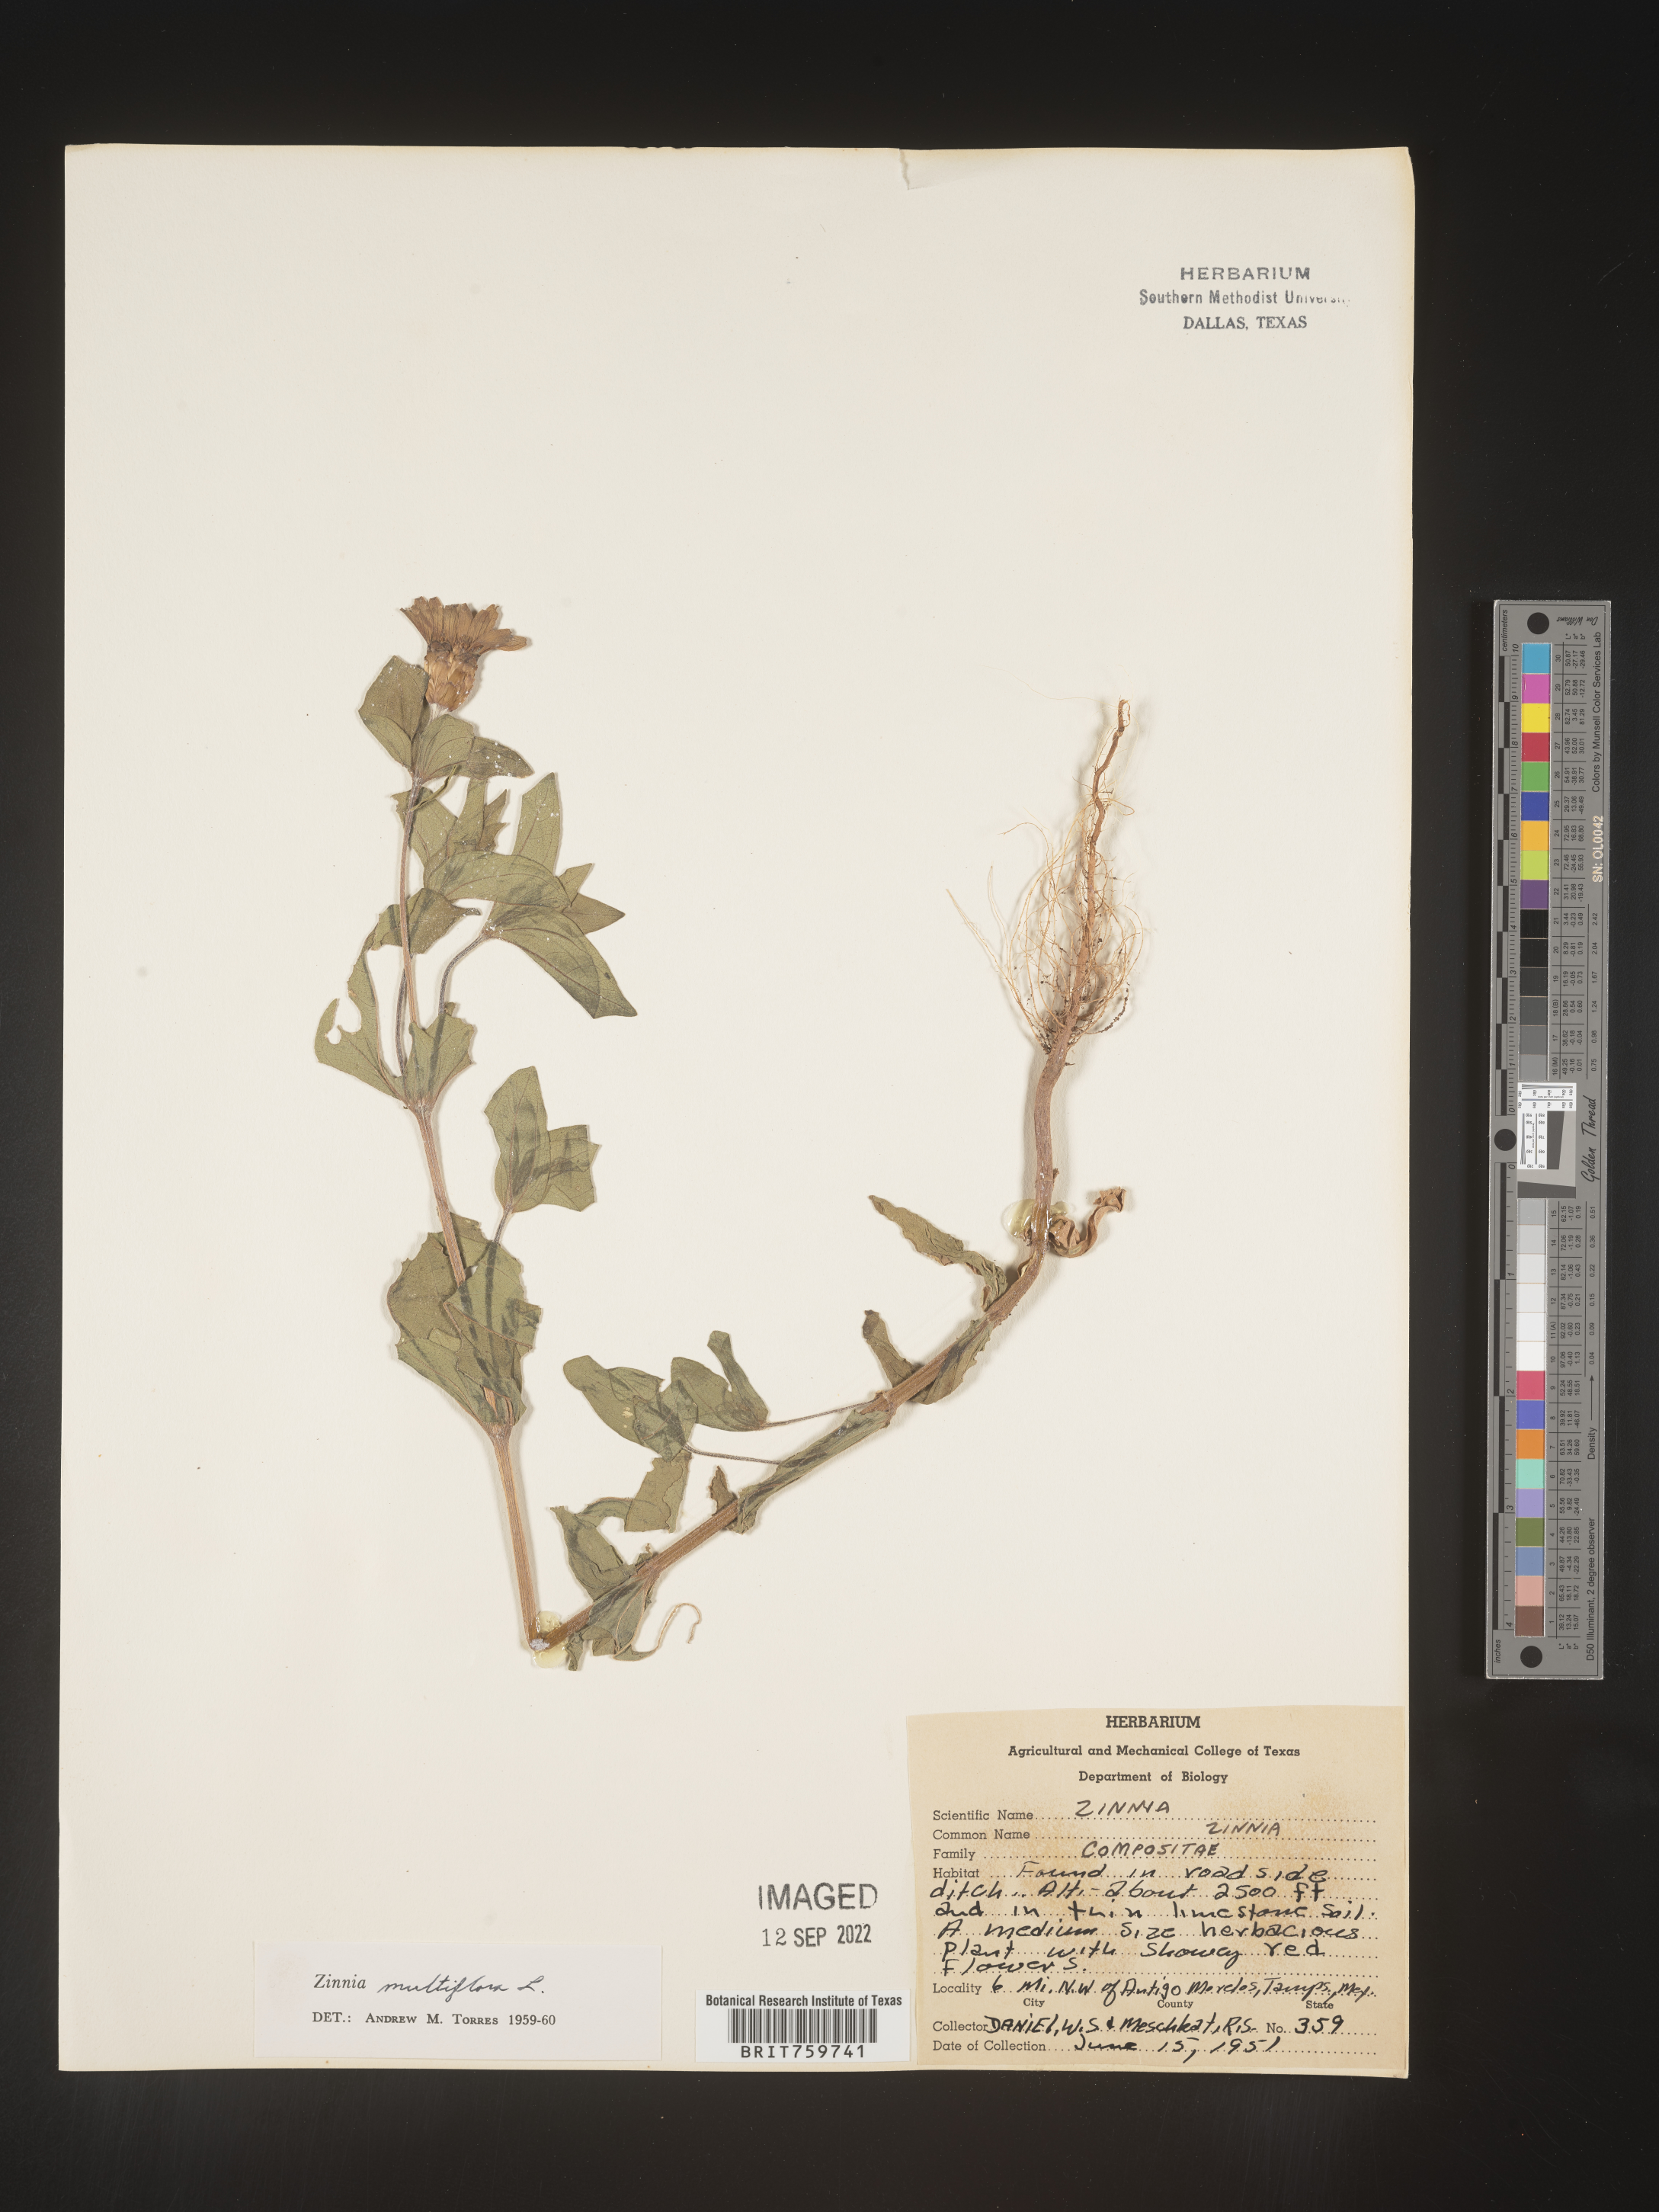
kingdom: Plantae
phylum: Tracheophyta
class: Magnoliopsida
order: Asterales
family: Asteraceae
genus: Zinnia
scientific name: Zinnia
